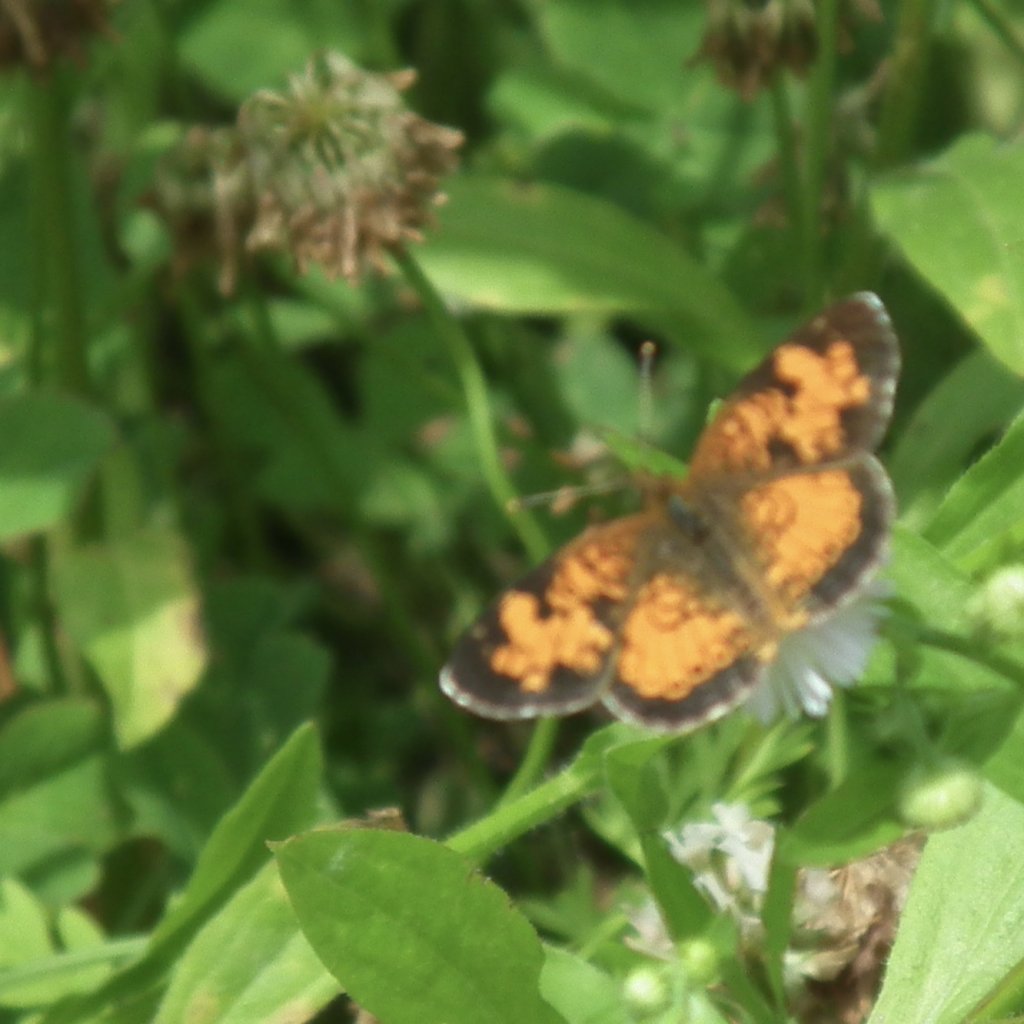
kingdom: Animalia
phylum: Arthropoda
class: Insecta
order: Lepidoptera
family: Nymphalidae
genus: Phyciodes
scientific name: Phyciodes tharos
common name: Northern Crescent
